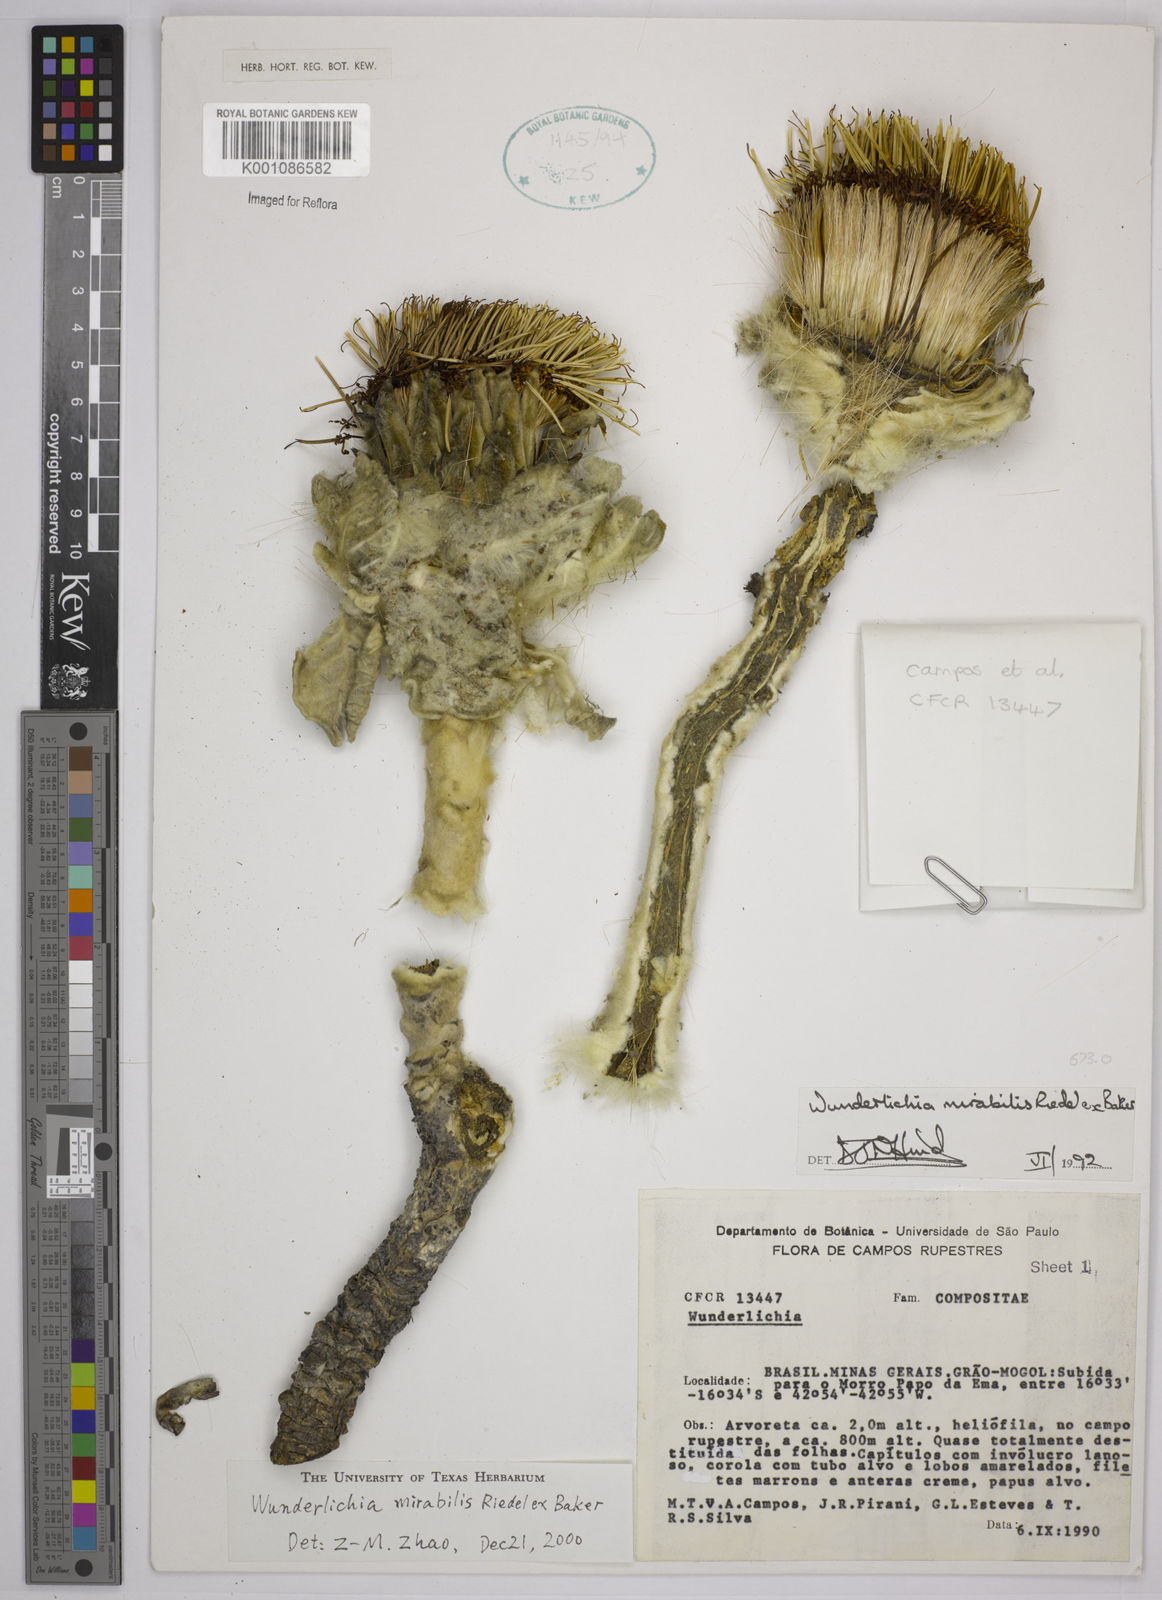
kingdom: Plantae
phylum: Tracheophyta
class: Magnoliopsida
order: Asterales
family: Asteraceae
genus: Wunderlichia
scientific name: Wunderlichia mirabilis
